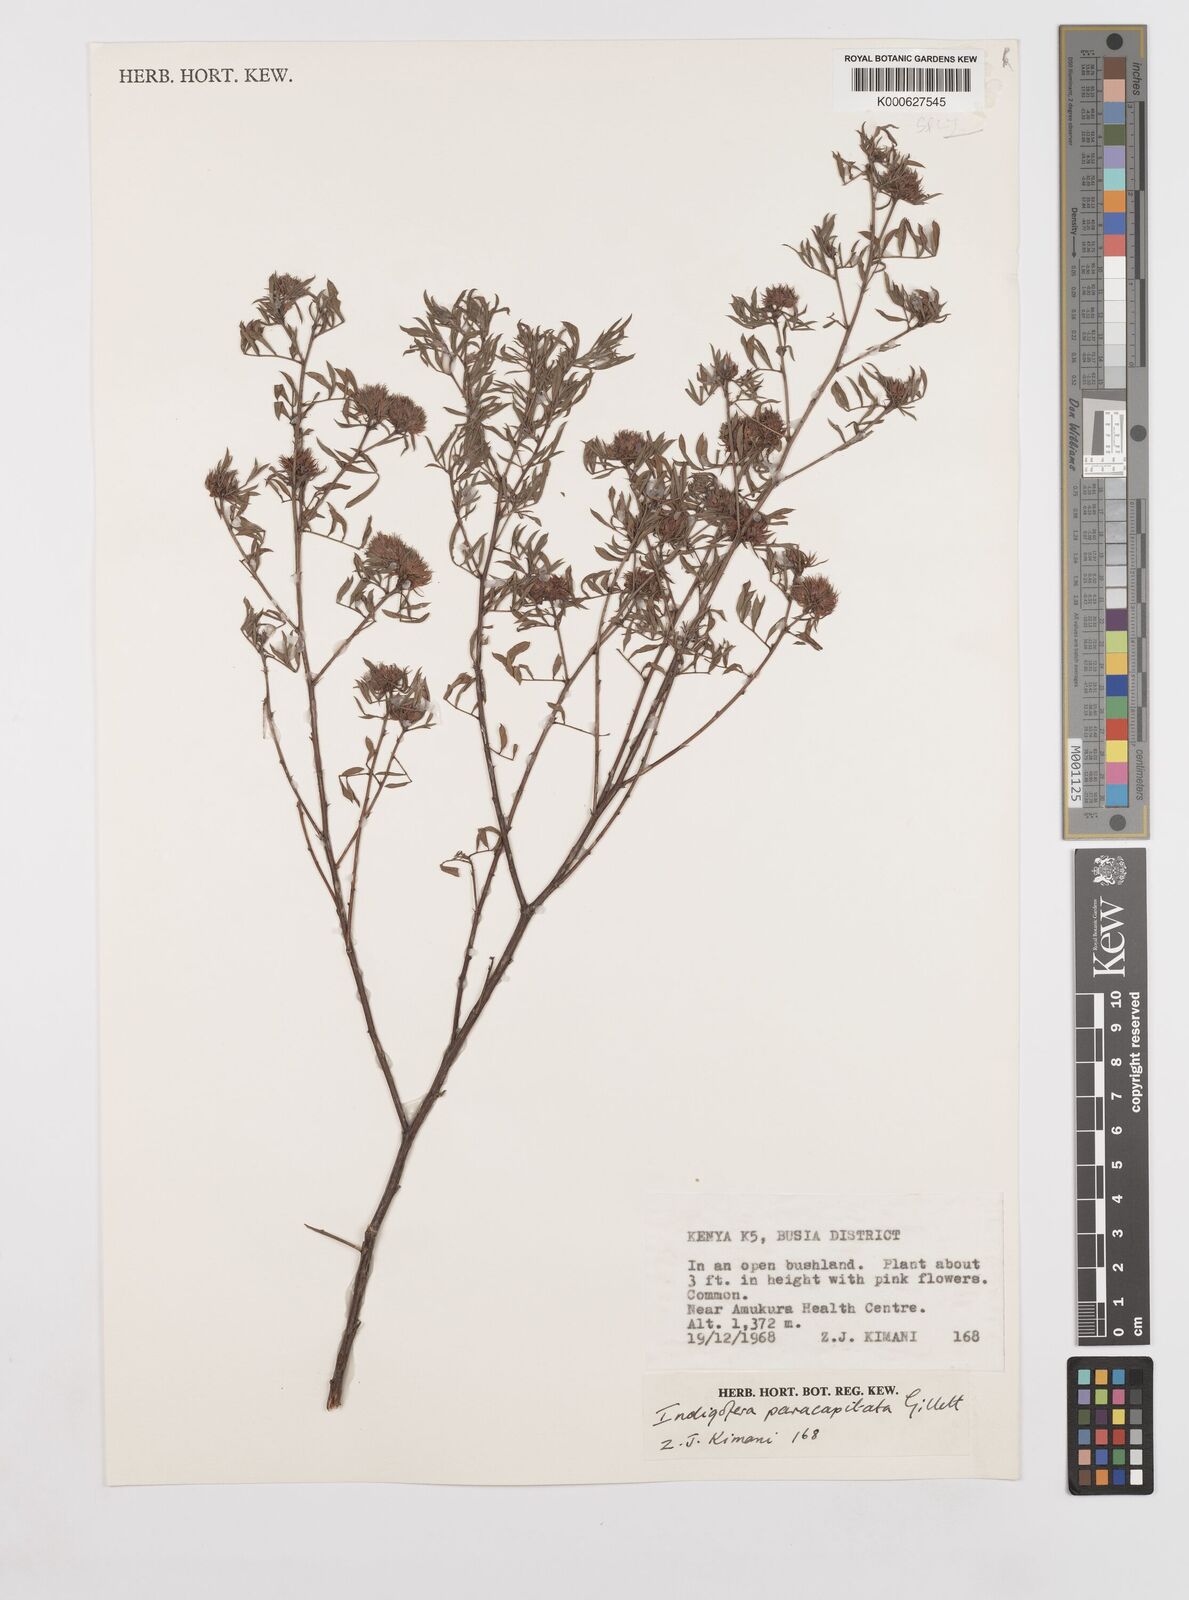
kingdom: Plantae
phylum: Tracheophyta
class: Magnoliopsida
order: Fabales
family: Fabaceae
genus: Indigofera
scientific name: Indigofera paracapitata
